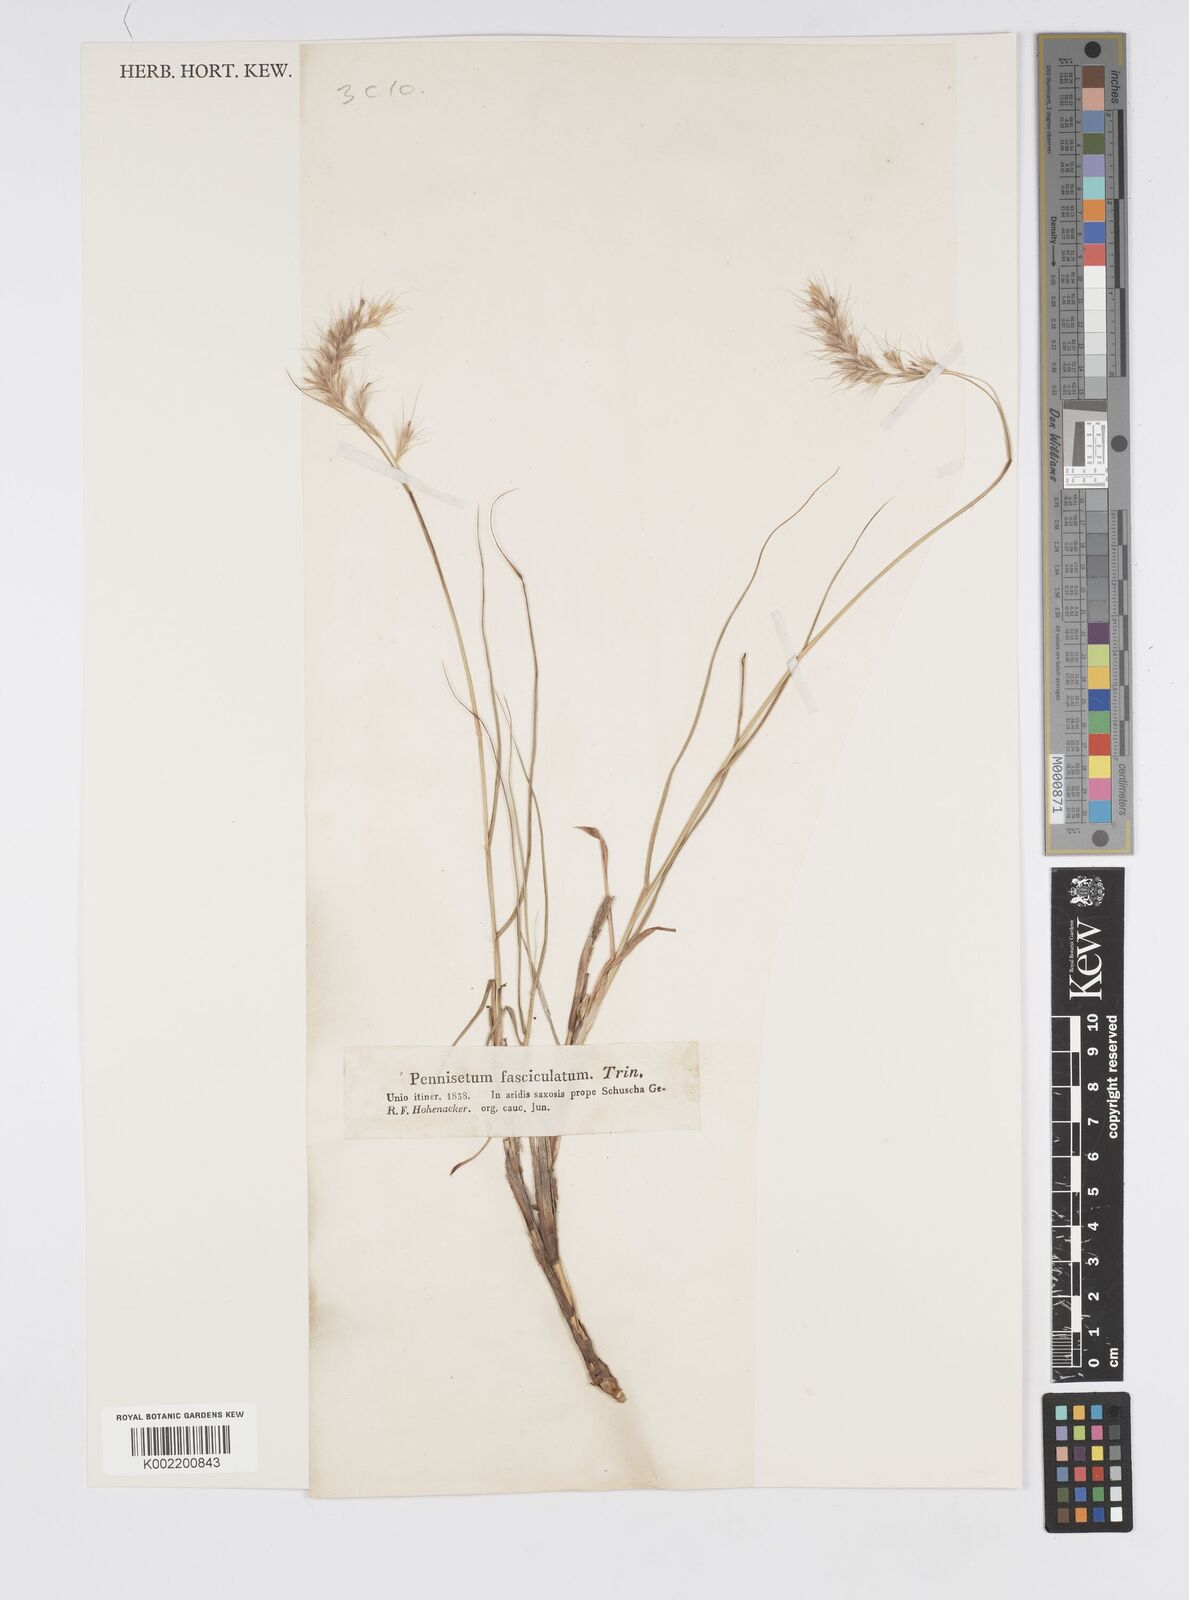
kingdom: Plantae
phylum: Tracheophyta
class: Liliopsida
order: Poales
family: Poaceae
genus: Cenchrus
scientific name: Cenchrus orientalis
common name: Oriental fountain grass
